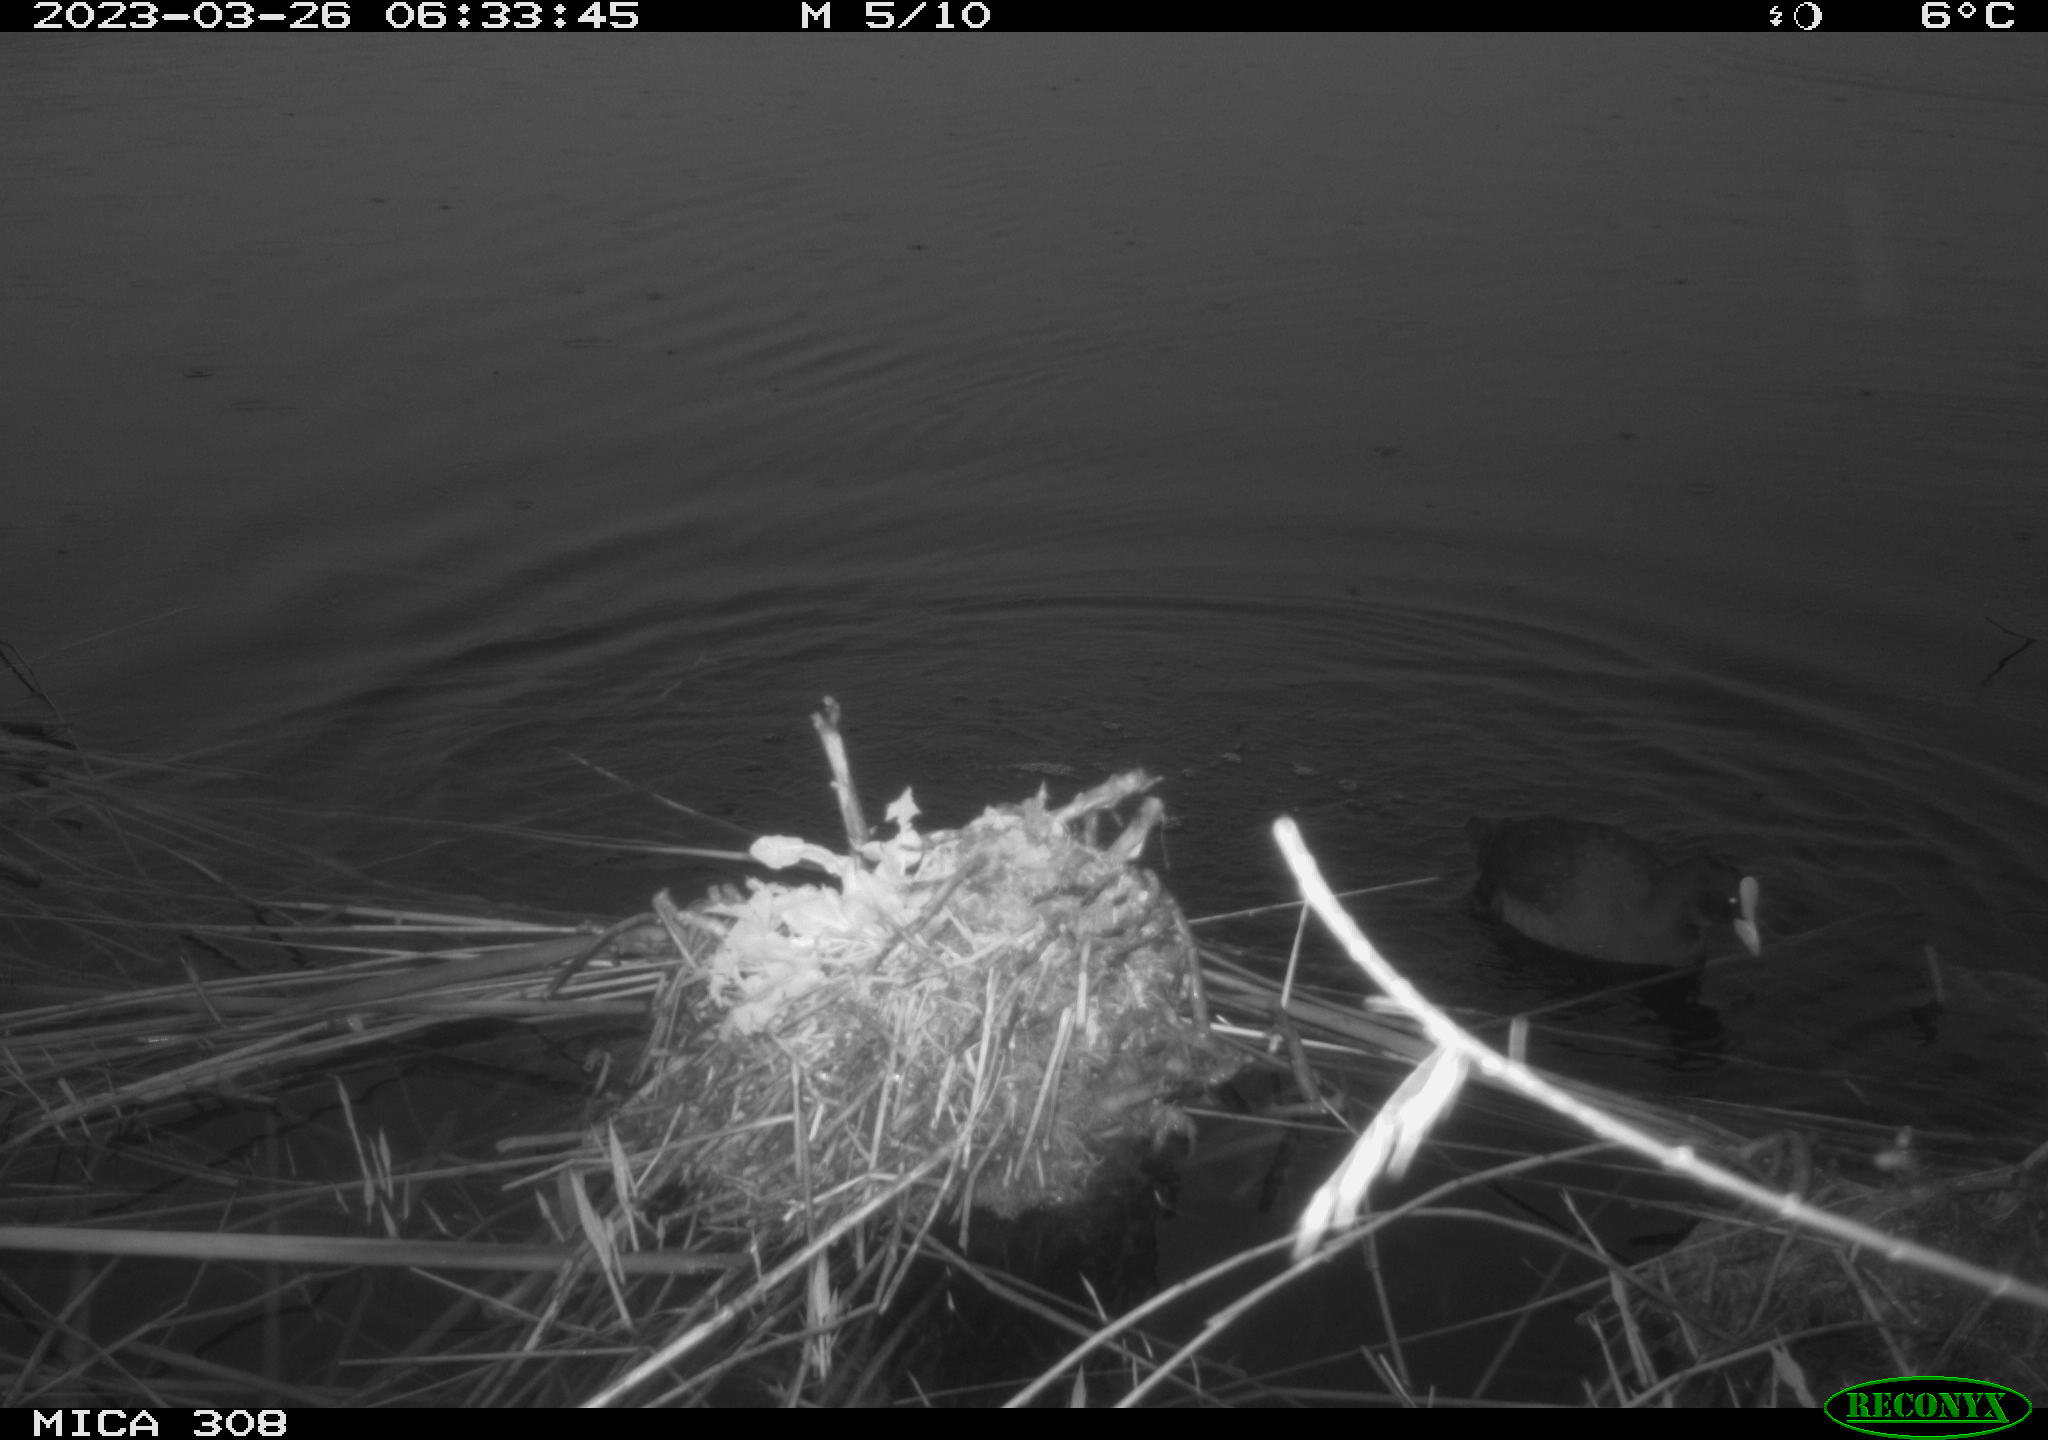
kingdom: Animalia
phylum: Chordata
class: Aves
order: Gruiformes
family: Rallidae
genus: Fulica
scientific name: Fulica atra
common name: Eurasian coot
